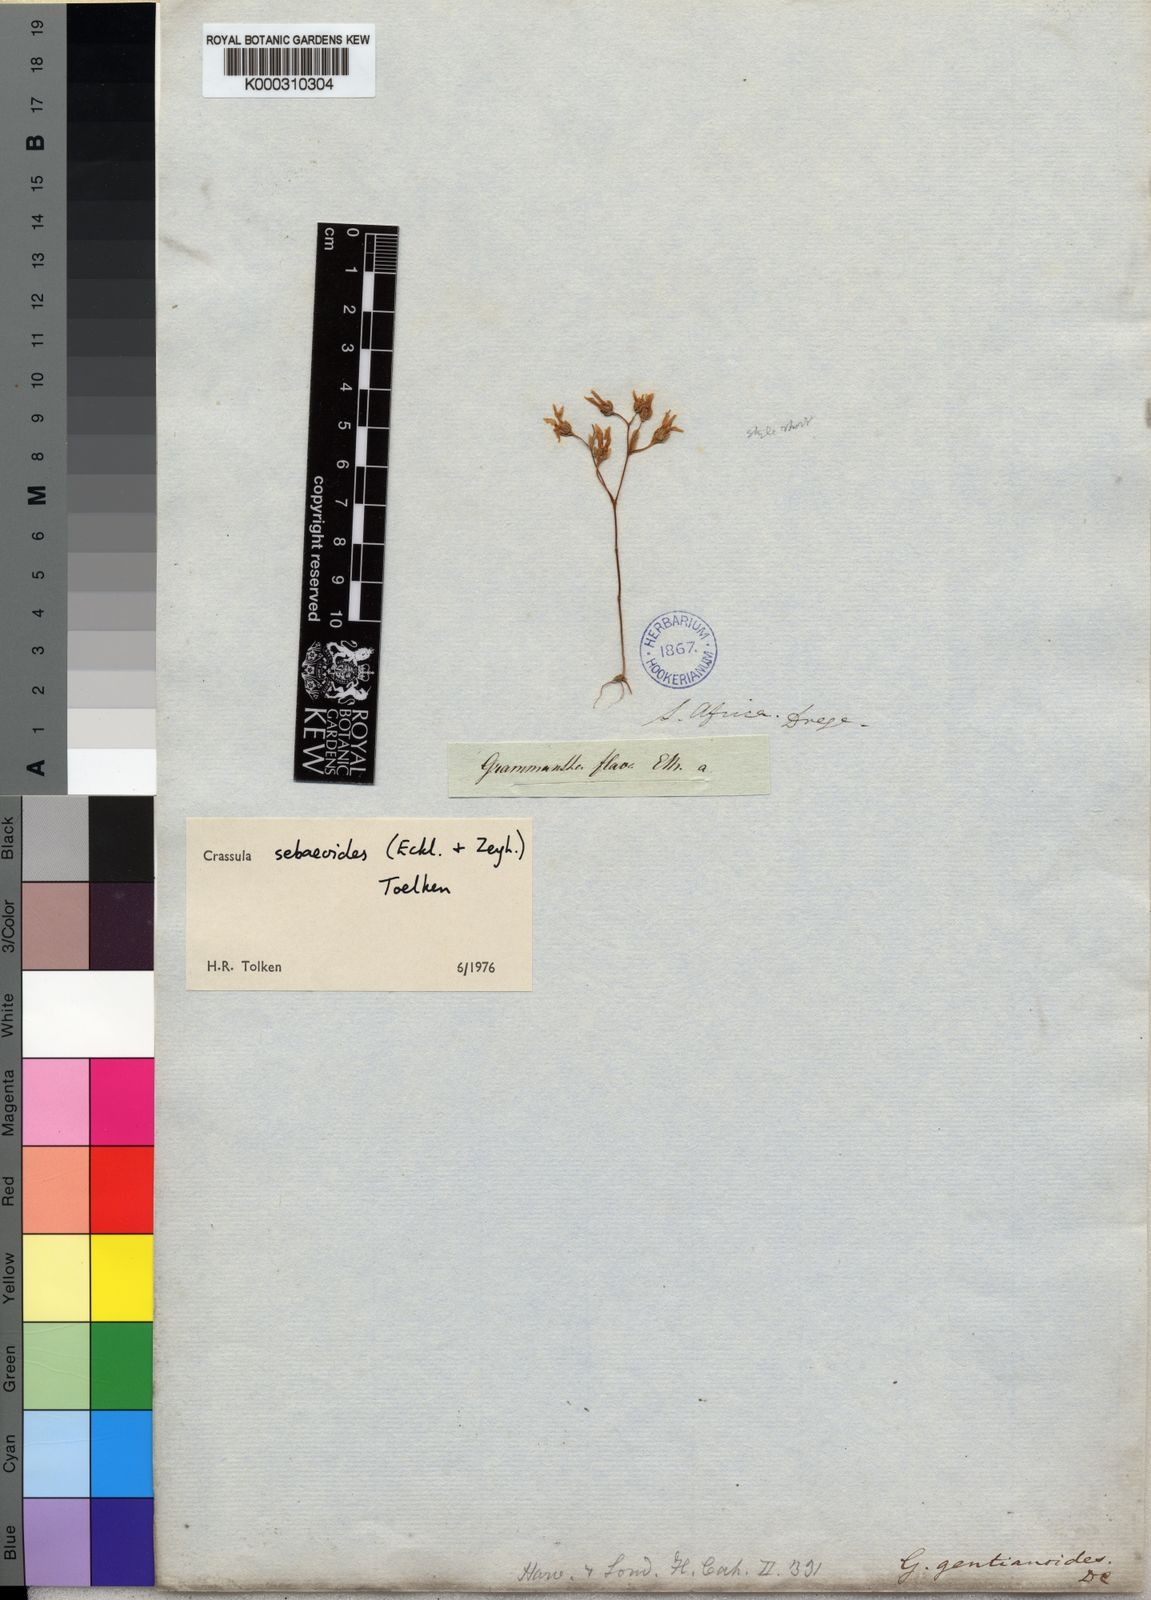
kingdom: Plantae
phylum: Tracheophyta
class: Magnoliopsida
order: Saxifragales
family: Crassulaceae
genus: Crassula
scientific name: Crassula sebaeoides
